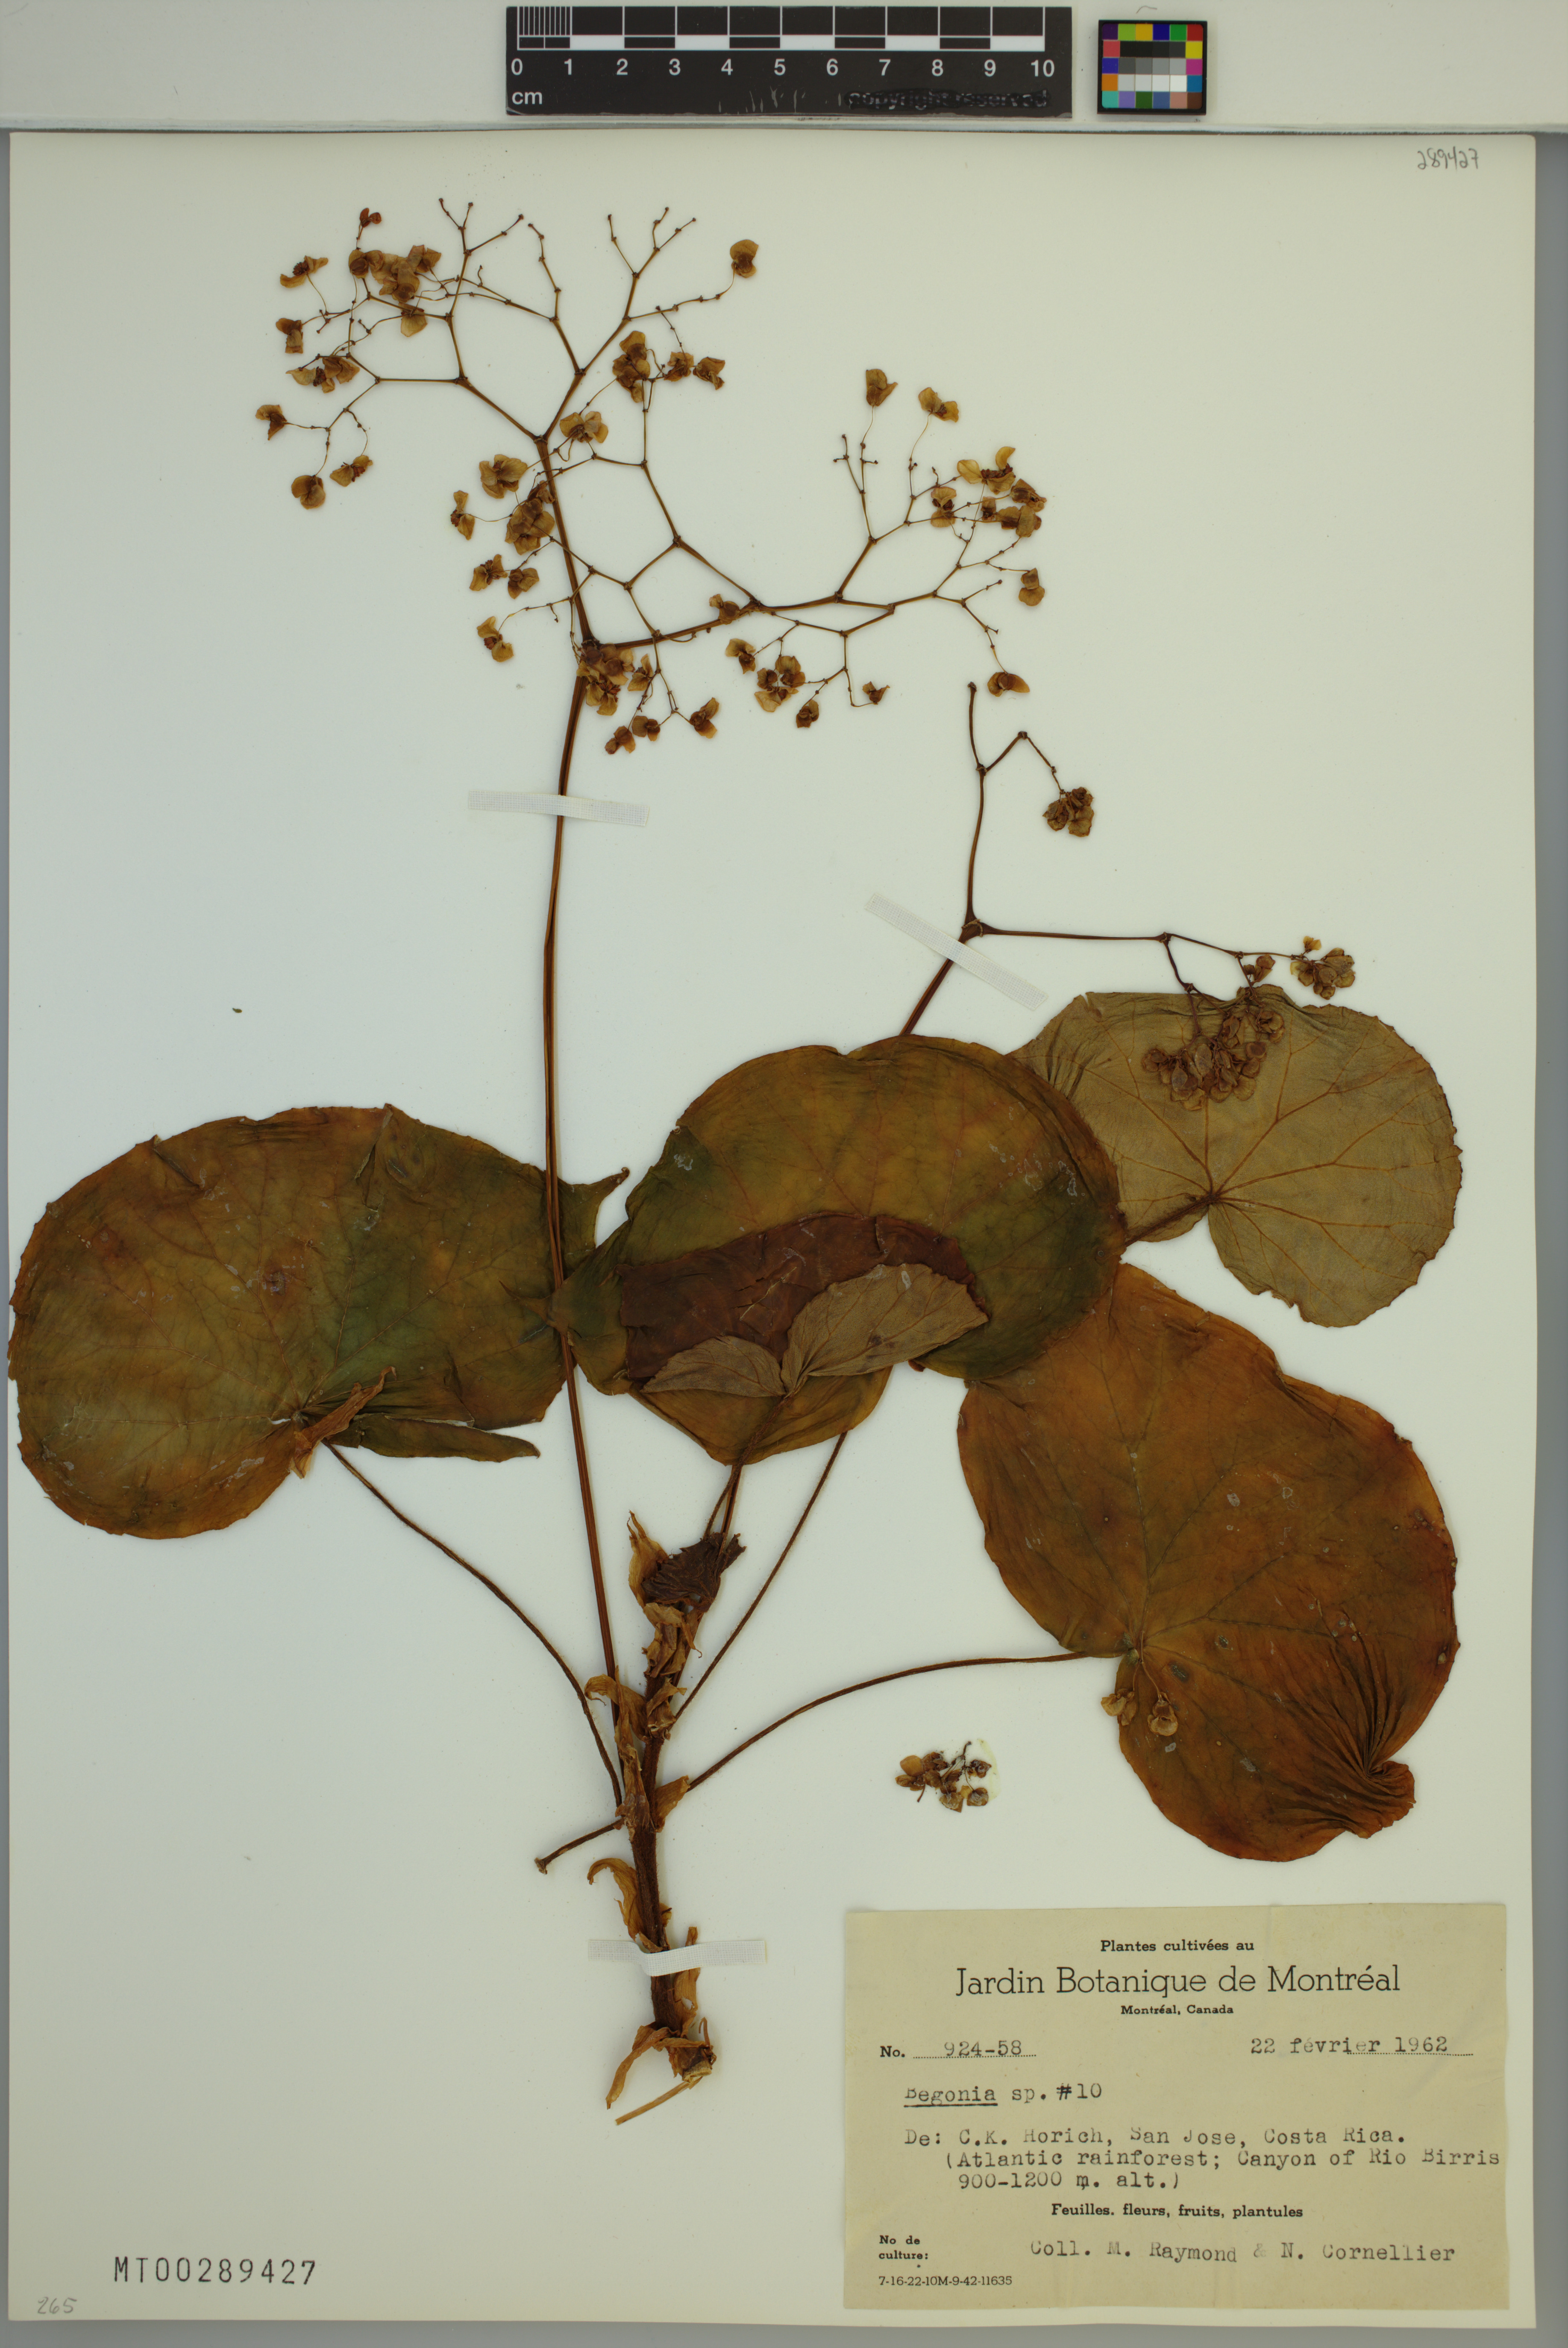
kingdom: Plantae
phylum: Tracheophyta
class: Magnoliopsida
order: Cucurbitales
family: Begoniaceae
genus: Begonia
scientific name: Begonia
